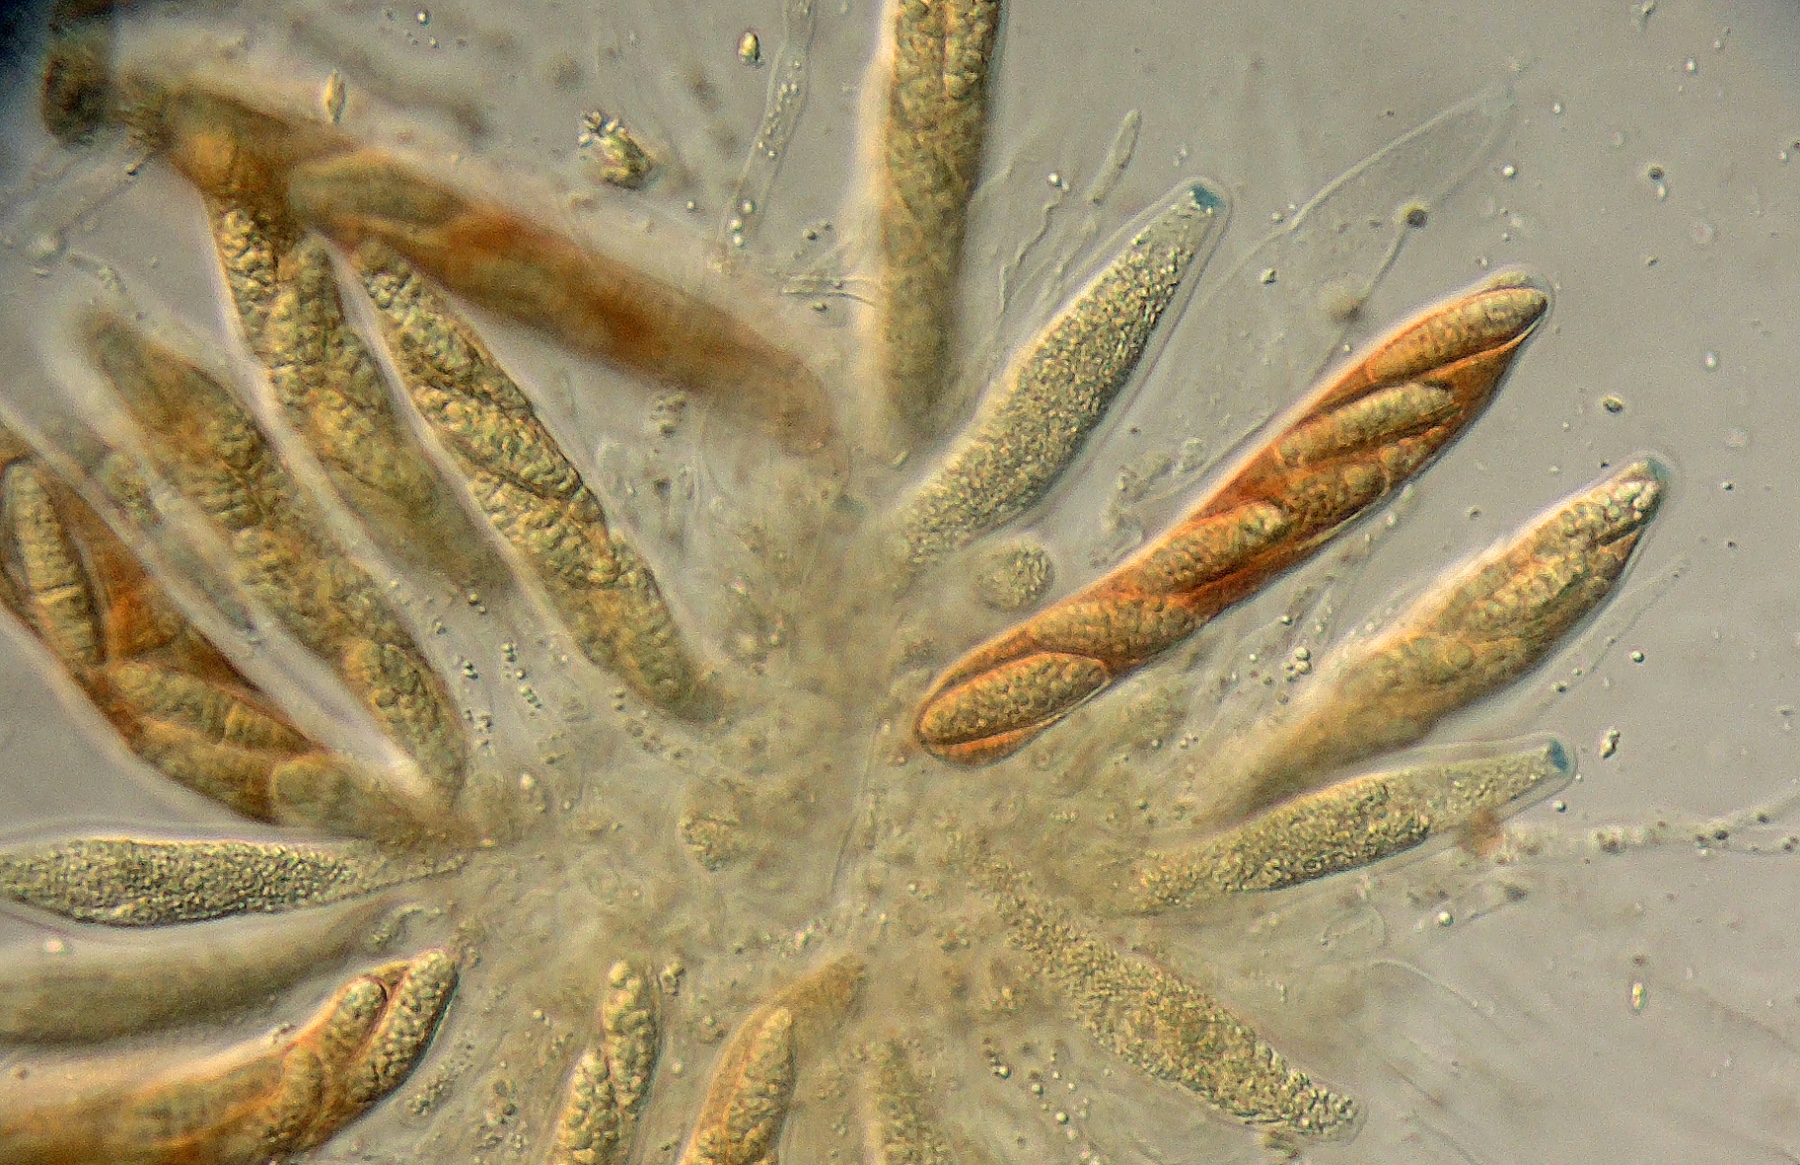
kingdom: Fungi
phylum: Ascomycota
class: Sordariomycetes
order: Xylariales
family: Pseudomassariaceae
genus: Pseudomassaria
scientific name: Pseudomassaria corni
